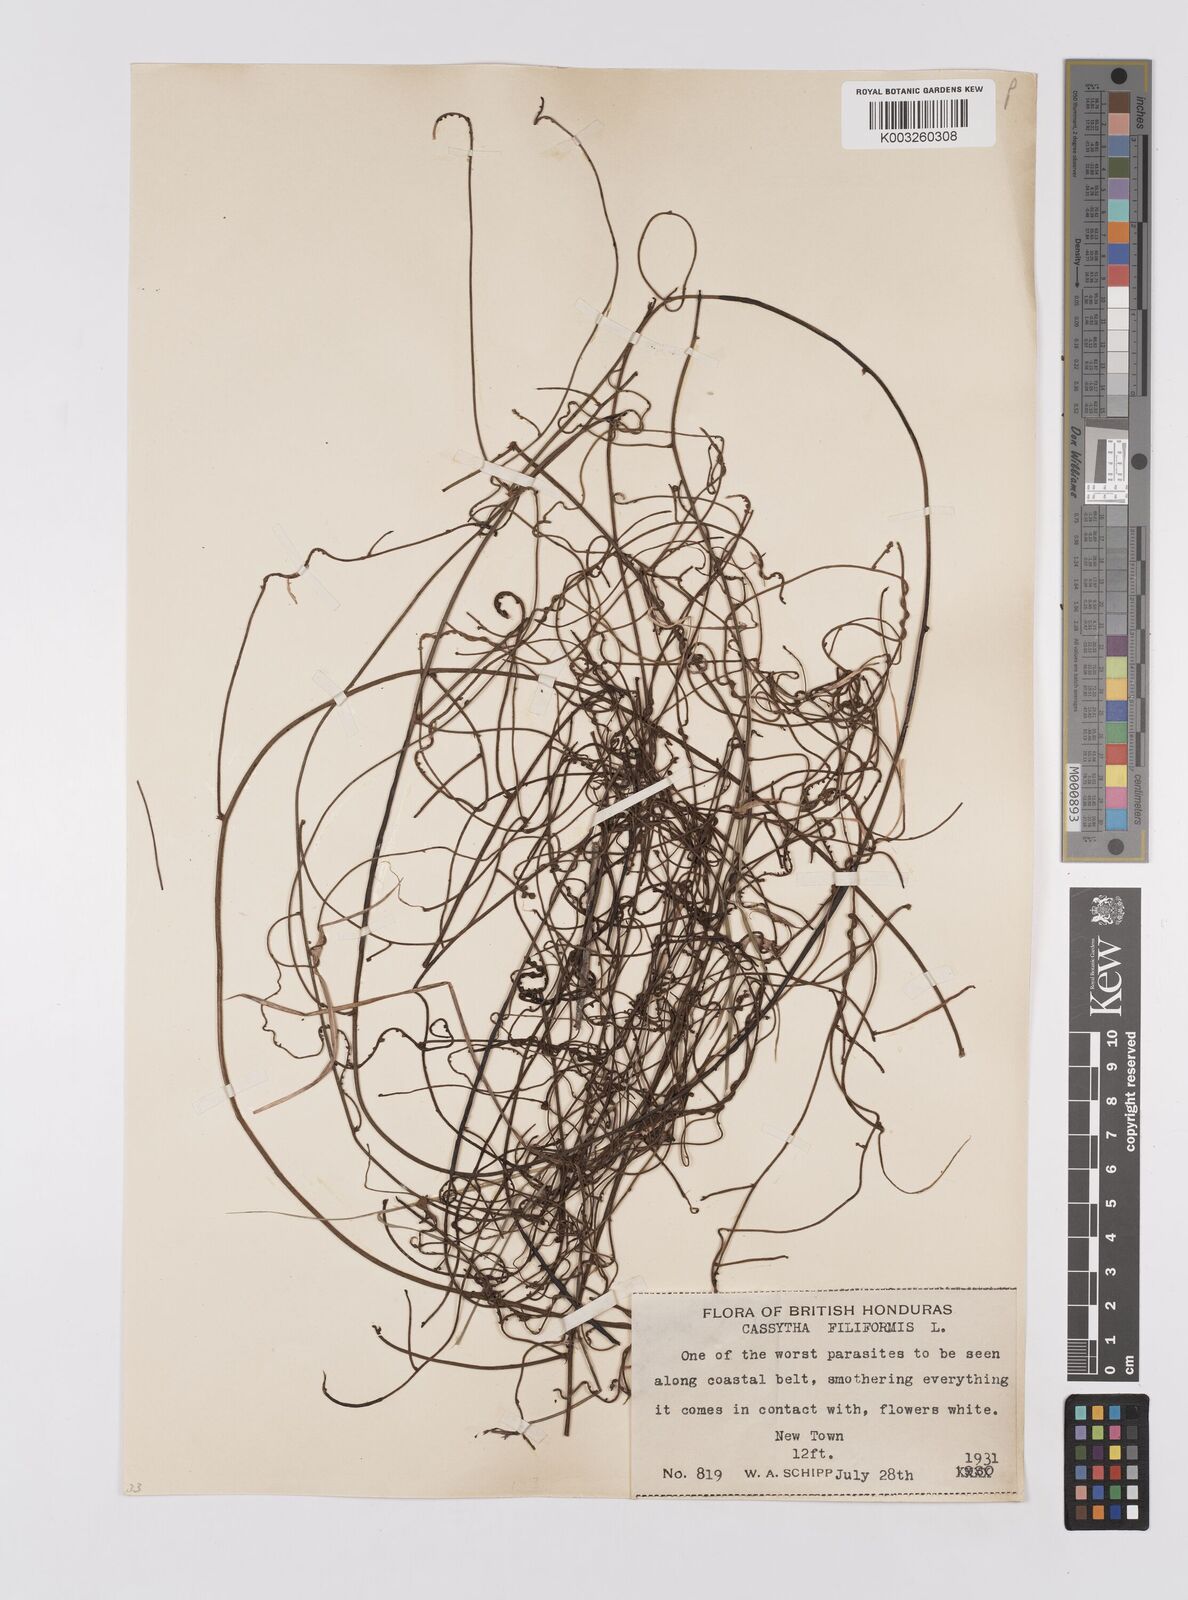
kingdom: Plantae
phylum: Tracheophyta
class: Magnoliopsida
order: Laurales
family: Lauraceae
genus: Cassytha
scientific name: Cassytha filiformis
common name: Dodder-laurel
